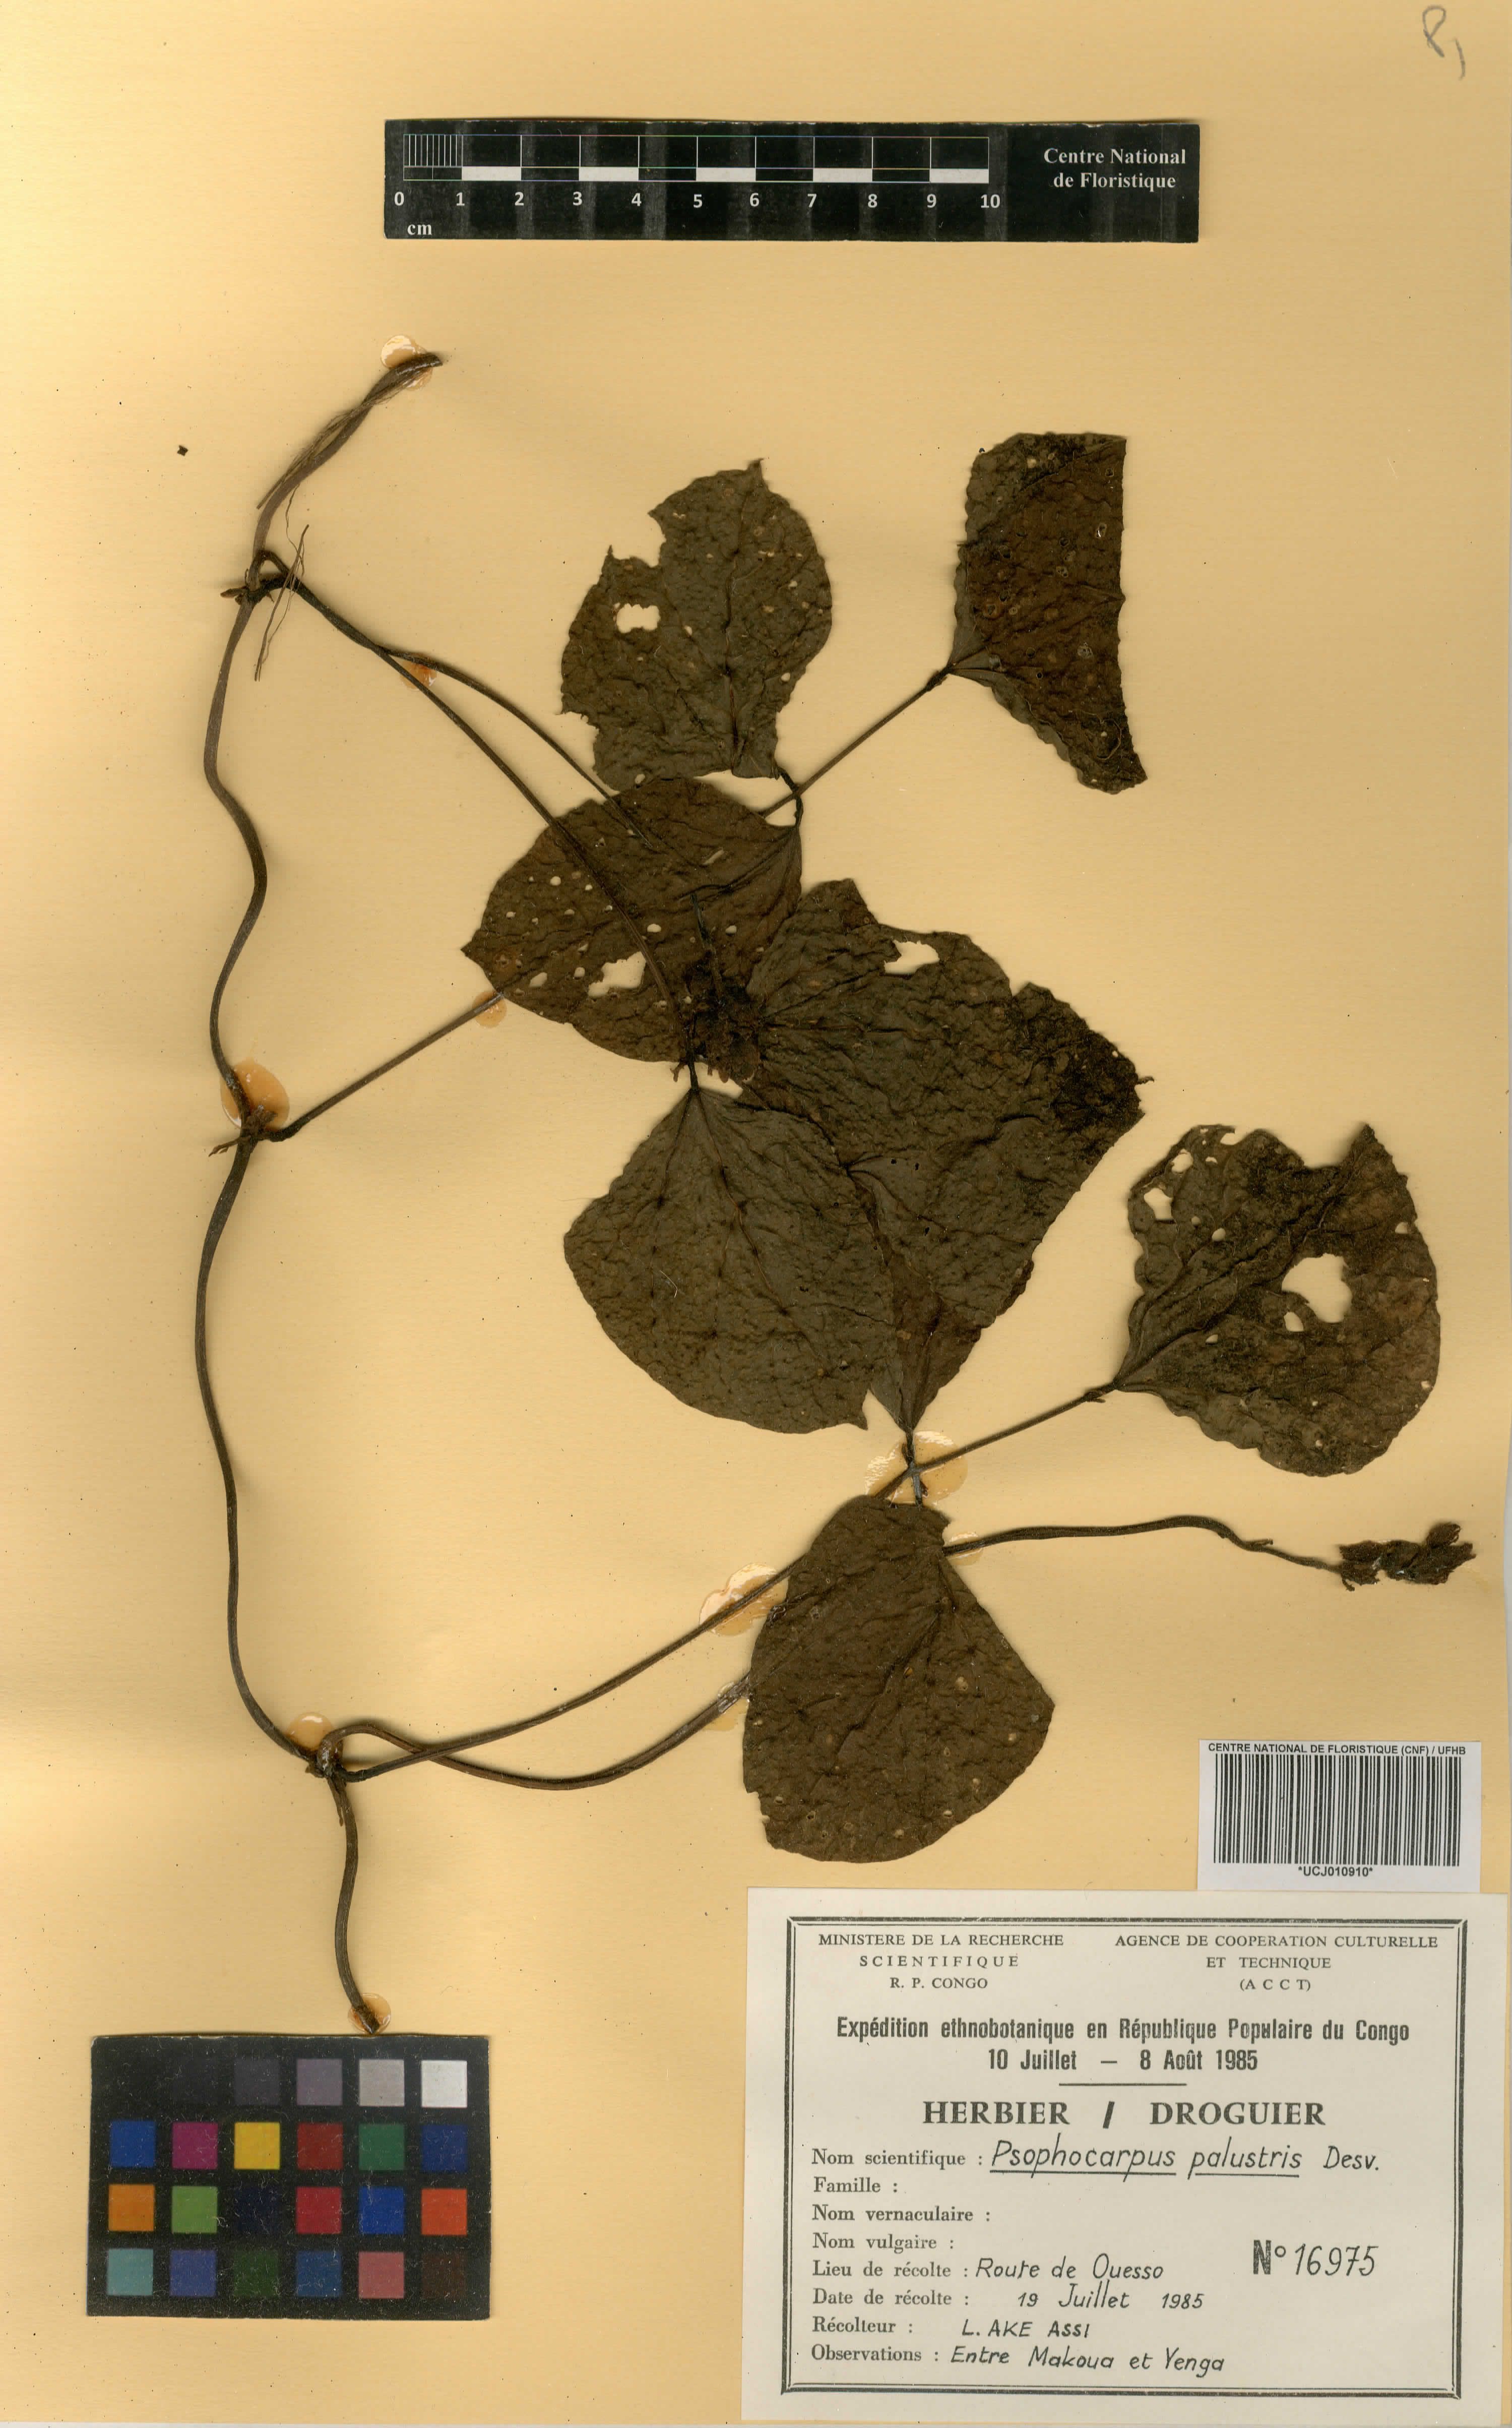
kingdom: Plantae
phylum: Tracheophyta
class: Magnoliopsida
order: Fabales
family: Fabaceae
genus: Psophocarpus
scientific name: Psophocarpus palustris
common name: African winged-bean
